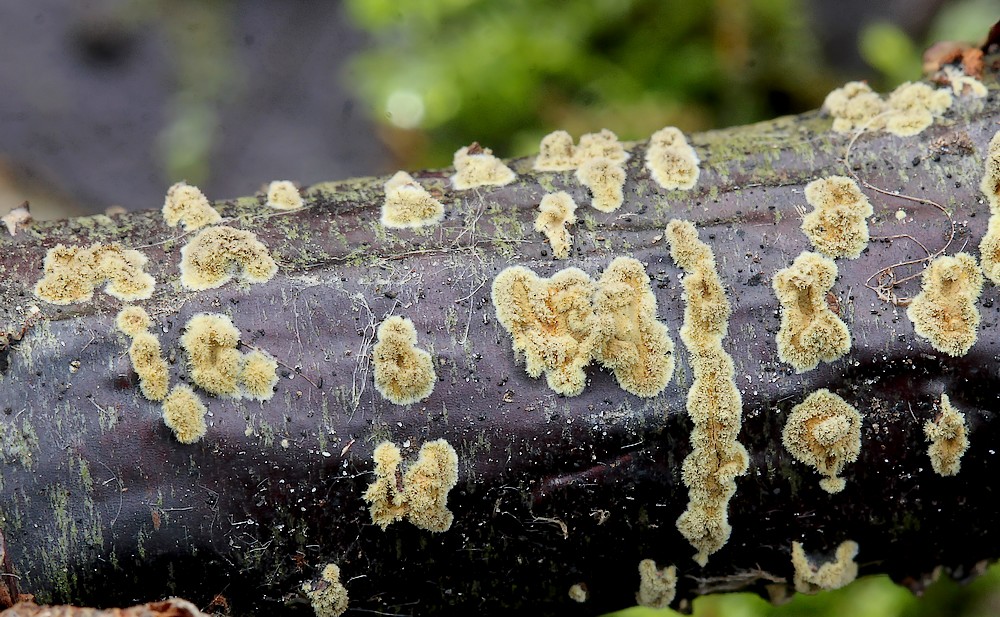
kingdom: Fungi
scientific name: Fungi
